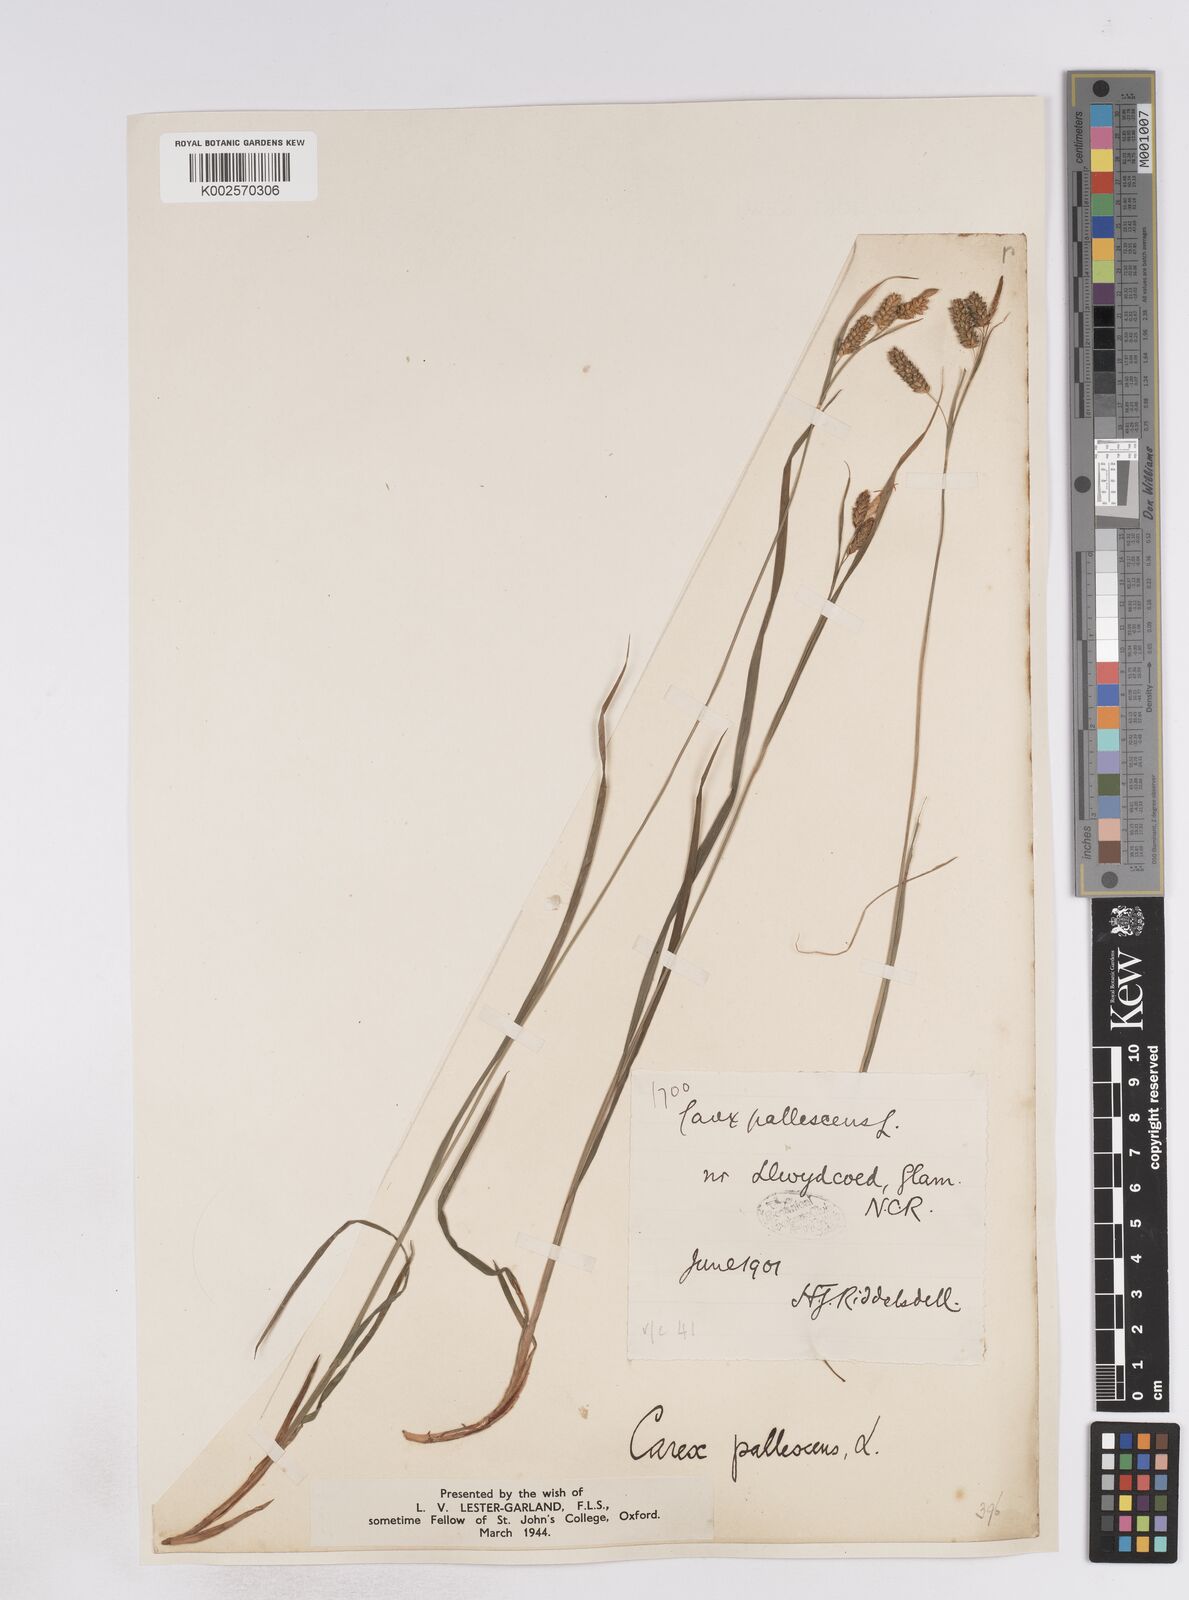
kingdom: Plantae
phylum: Tracheophyta
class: Liliopsida
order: Poales
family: Cyperaceae
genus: Carex
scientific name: Carex pallescens
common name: Pale sedge
